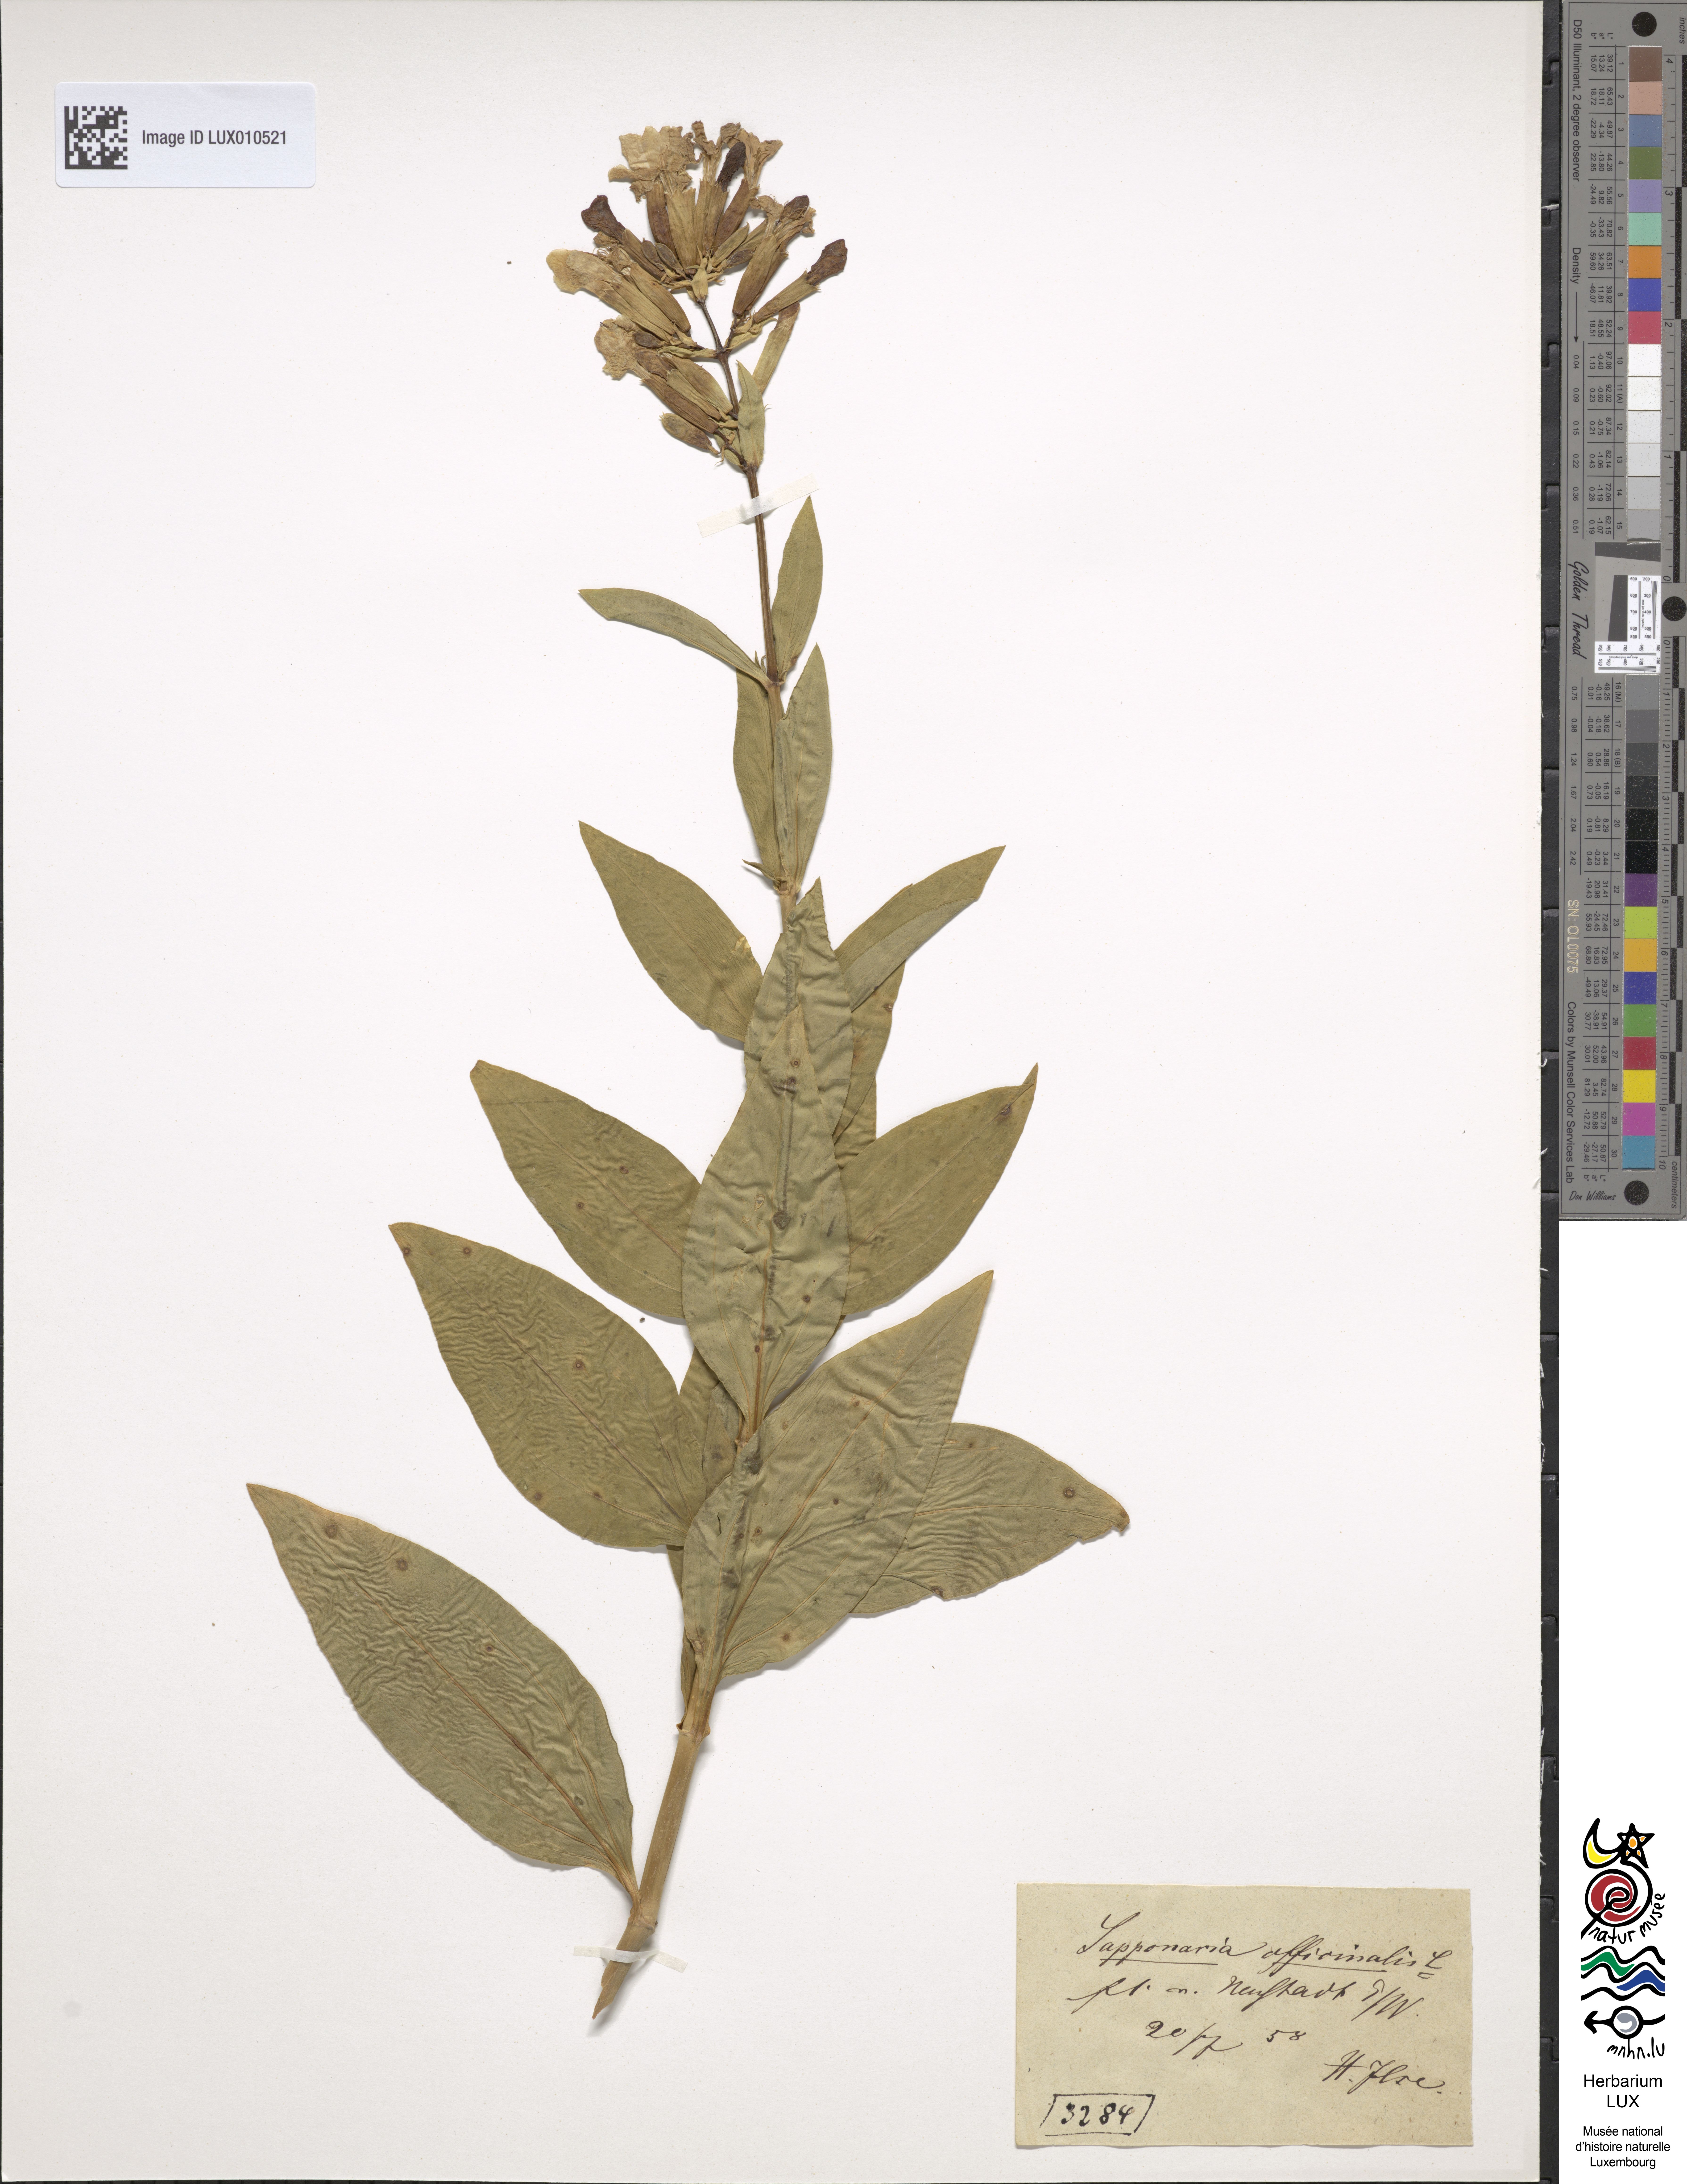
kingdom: Plantae
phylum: Tracheophyta
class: Magnoliopsida
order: Caryophyllales
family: Caryophyllaceae
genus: Saponaria
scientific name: Saponaria officinalis
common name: Soapwort
